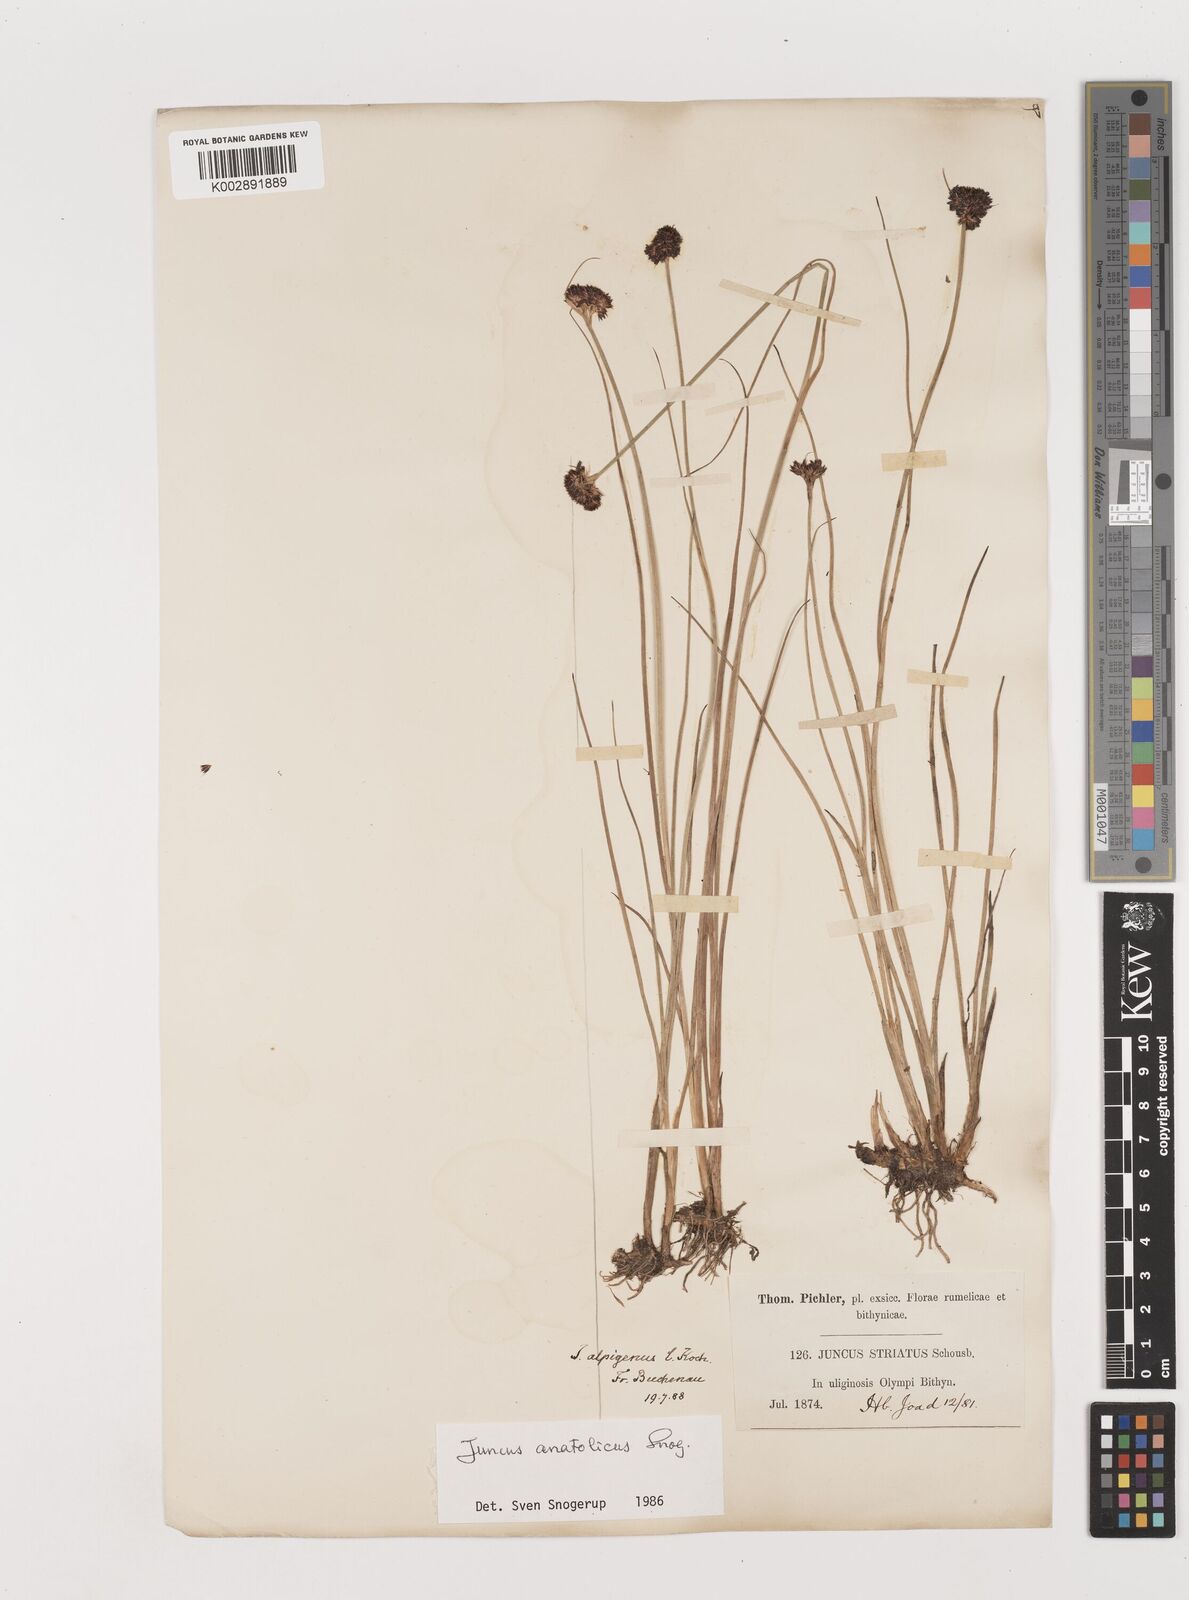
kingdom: Plantae
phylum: Tracheophyta
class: Liliopsida
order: Poales
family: Juncaceae
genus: Juncus
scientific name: Juncus anatolicus
